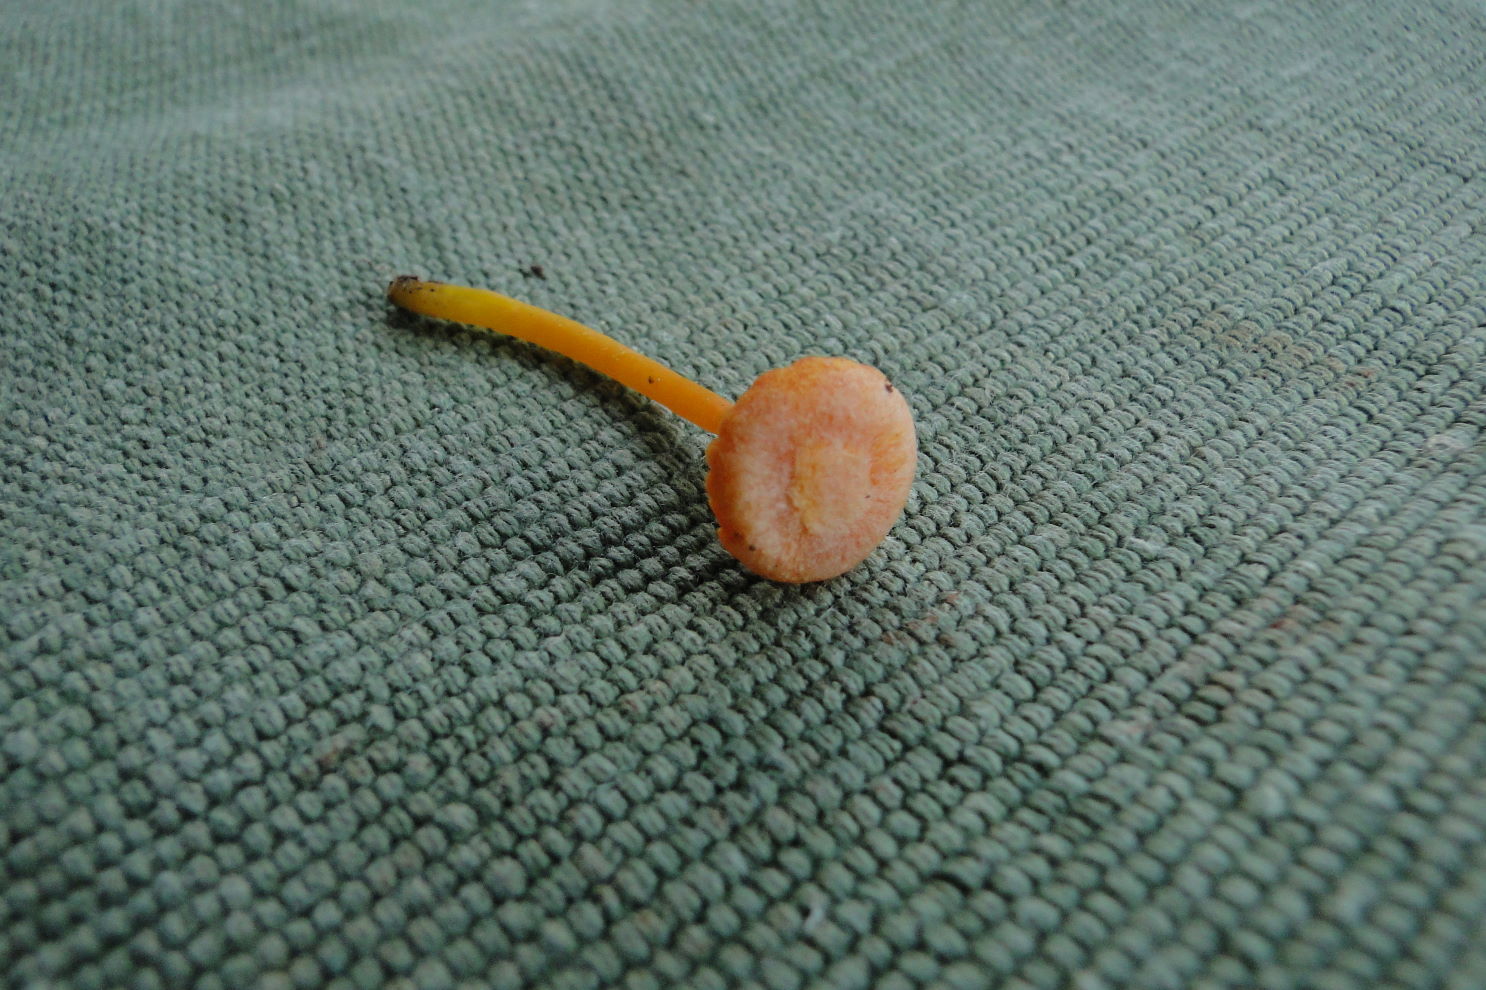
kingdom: Fungi
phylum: Basidiomycota
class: Agaricomycetes
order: Agaricales
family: Hygrophoraceae
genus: Hygrocybe
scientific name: Hygrocybe cantharellus
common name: kantarel-vokshat
